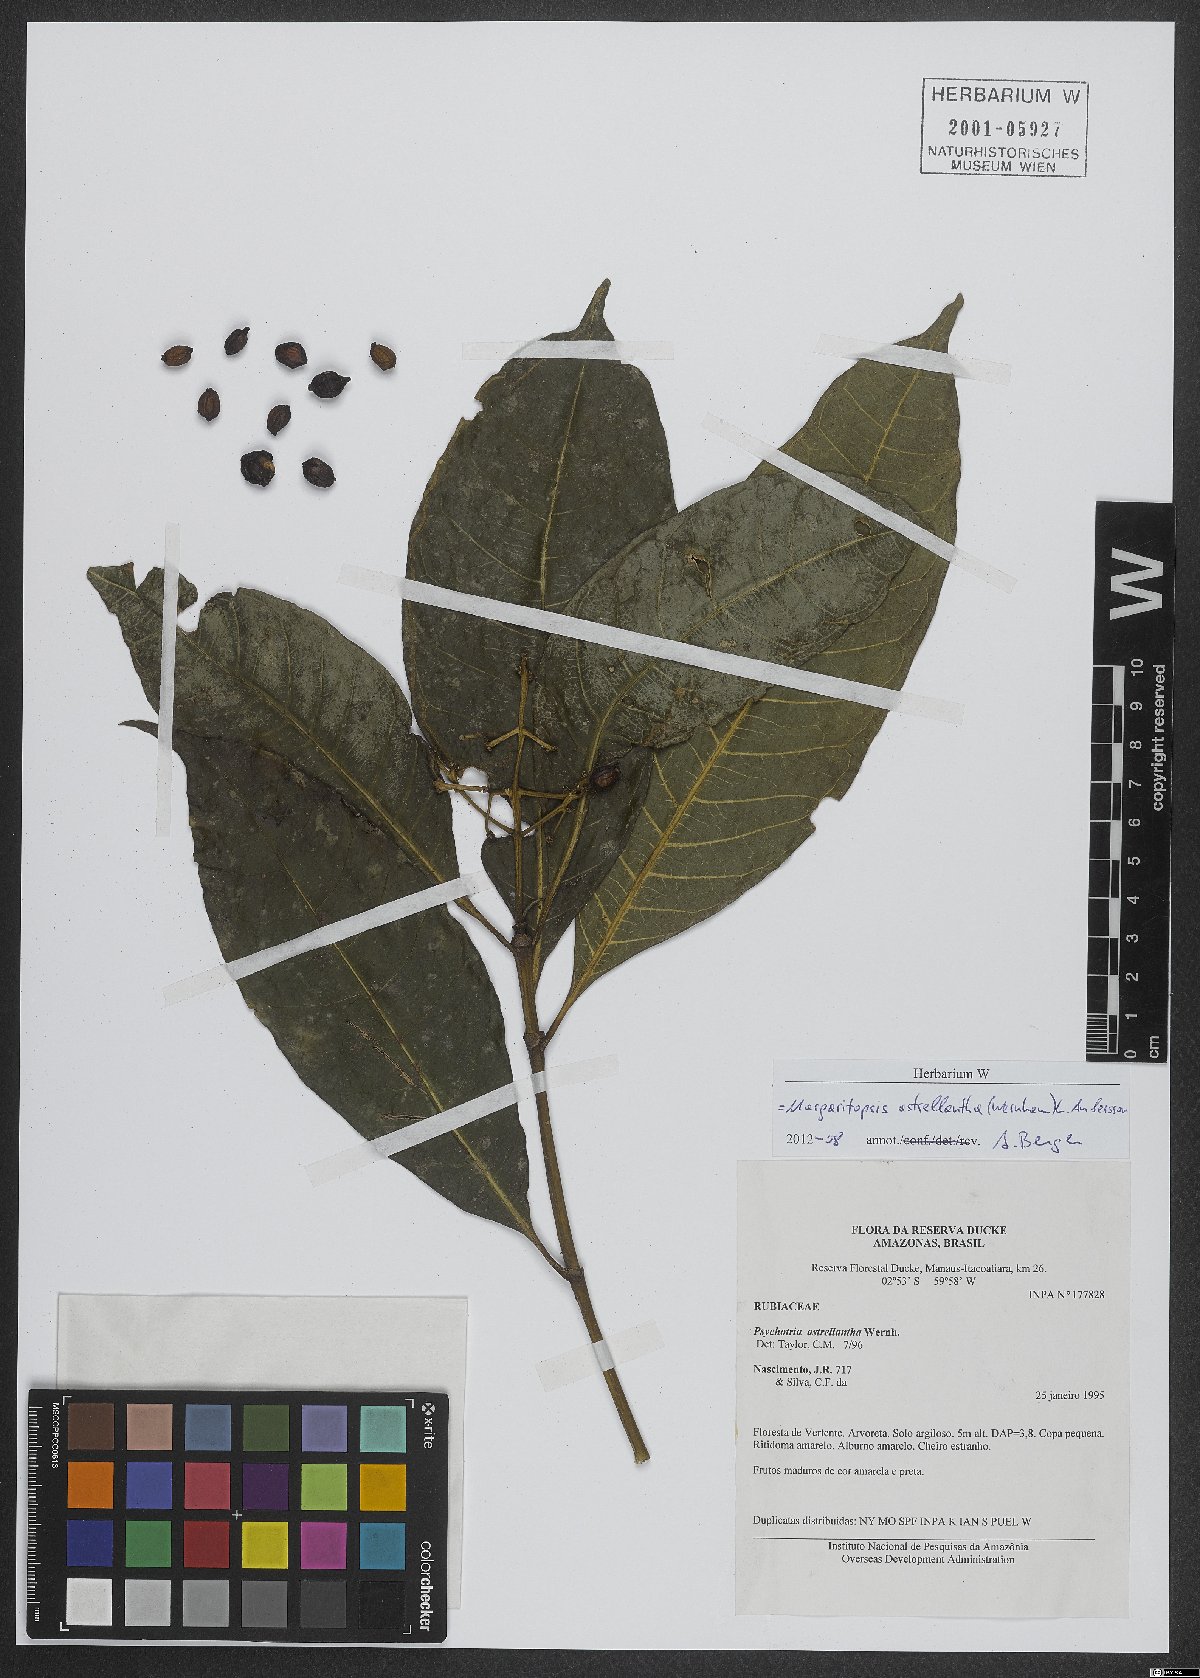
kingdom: Plantae
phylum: Tracheophyta
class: Magnoliopsida
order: Gentianales
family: Rubiaceae
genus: Eumachia
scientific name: Eumachia astrellantha
